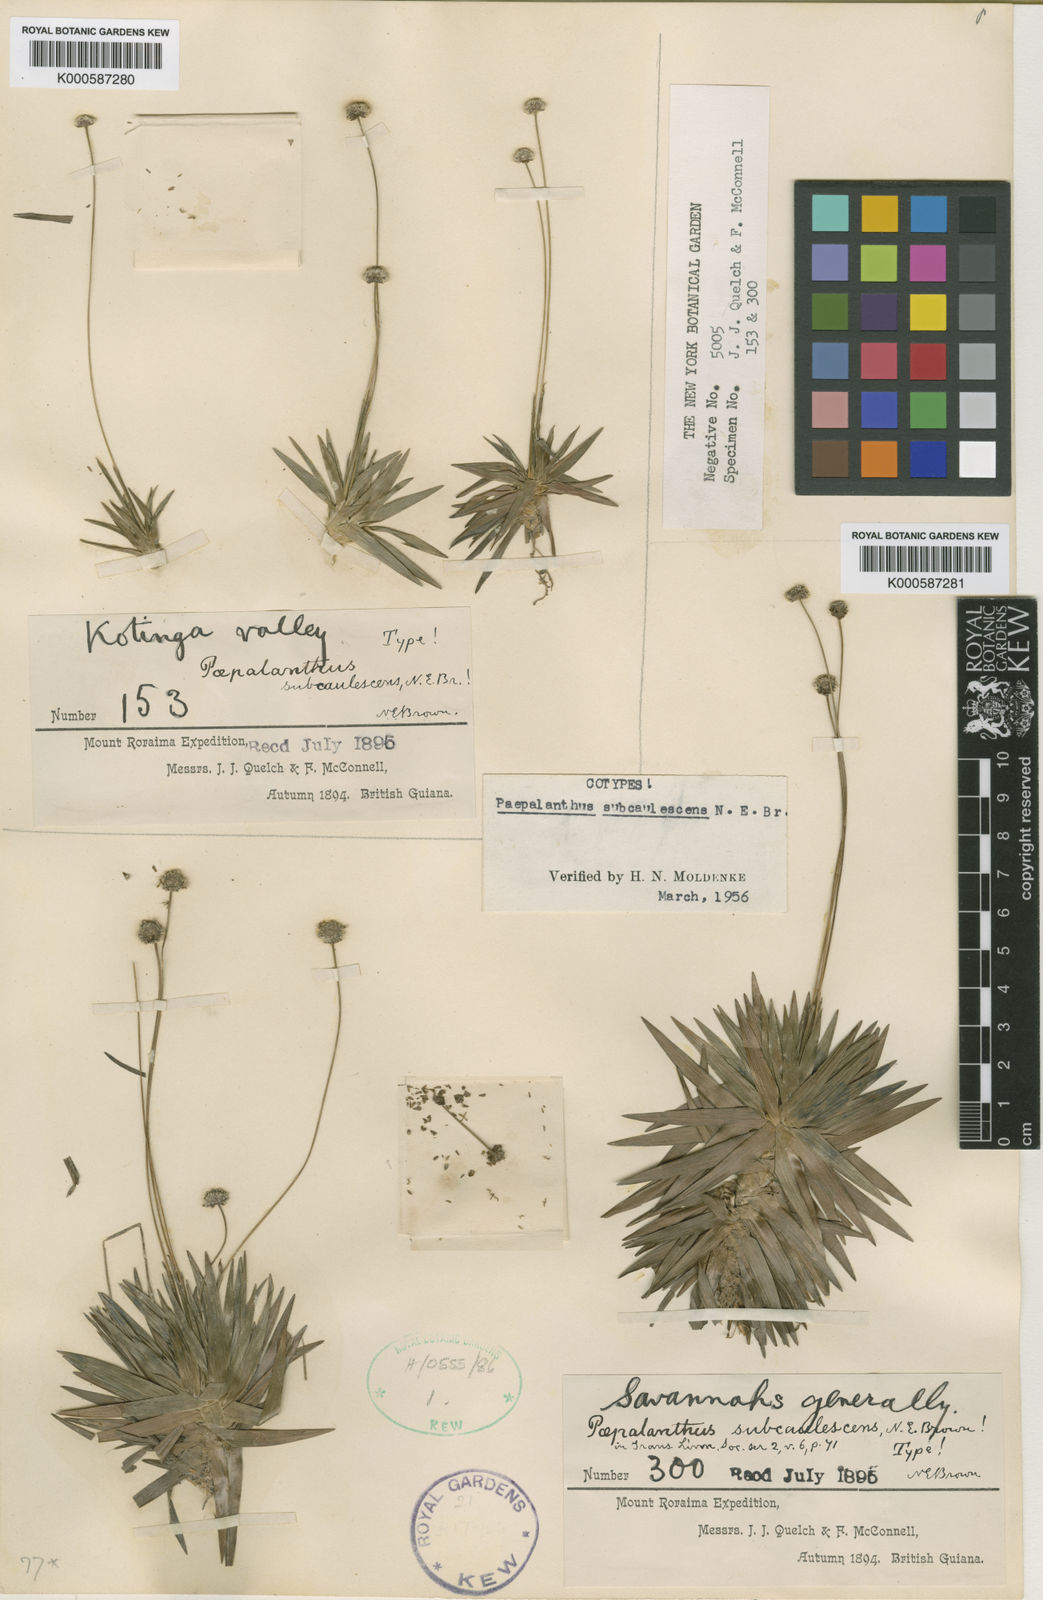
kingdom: Plantae
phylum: Tracheophyta
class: Liliopsida
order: Poales
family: Eriocaulaceae
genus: Paepalanthus
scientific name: Paepalanthus subcaulescens
